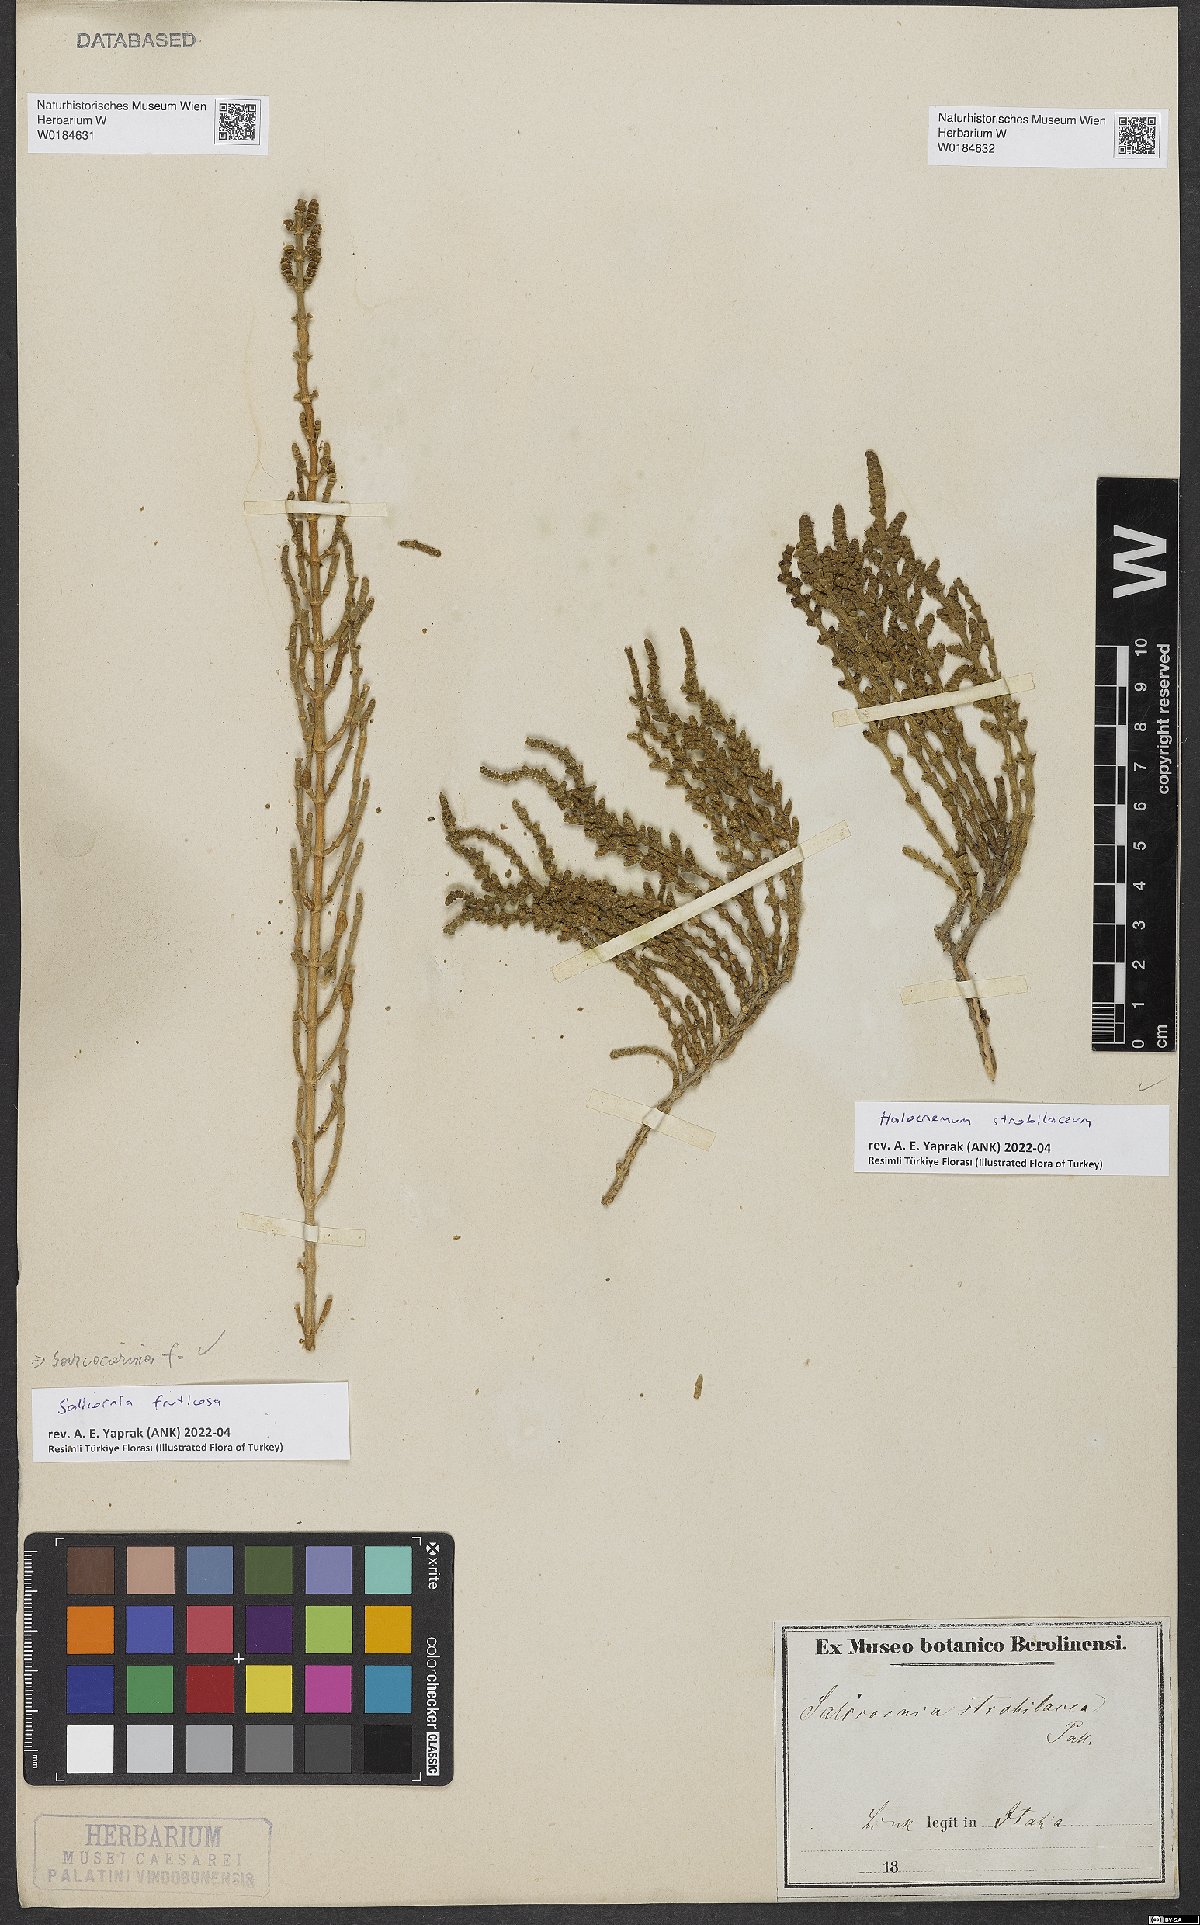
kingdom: Plantae
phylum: Tracheophyta
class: Magnoliopsida
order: Caryophyllales
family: Amaranthaceae
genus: Halocnemum
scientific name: Halocnemum strobilaceum
